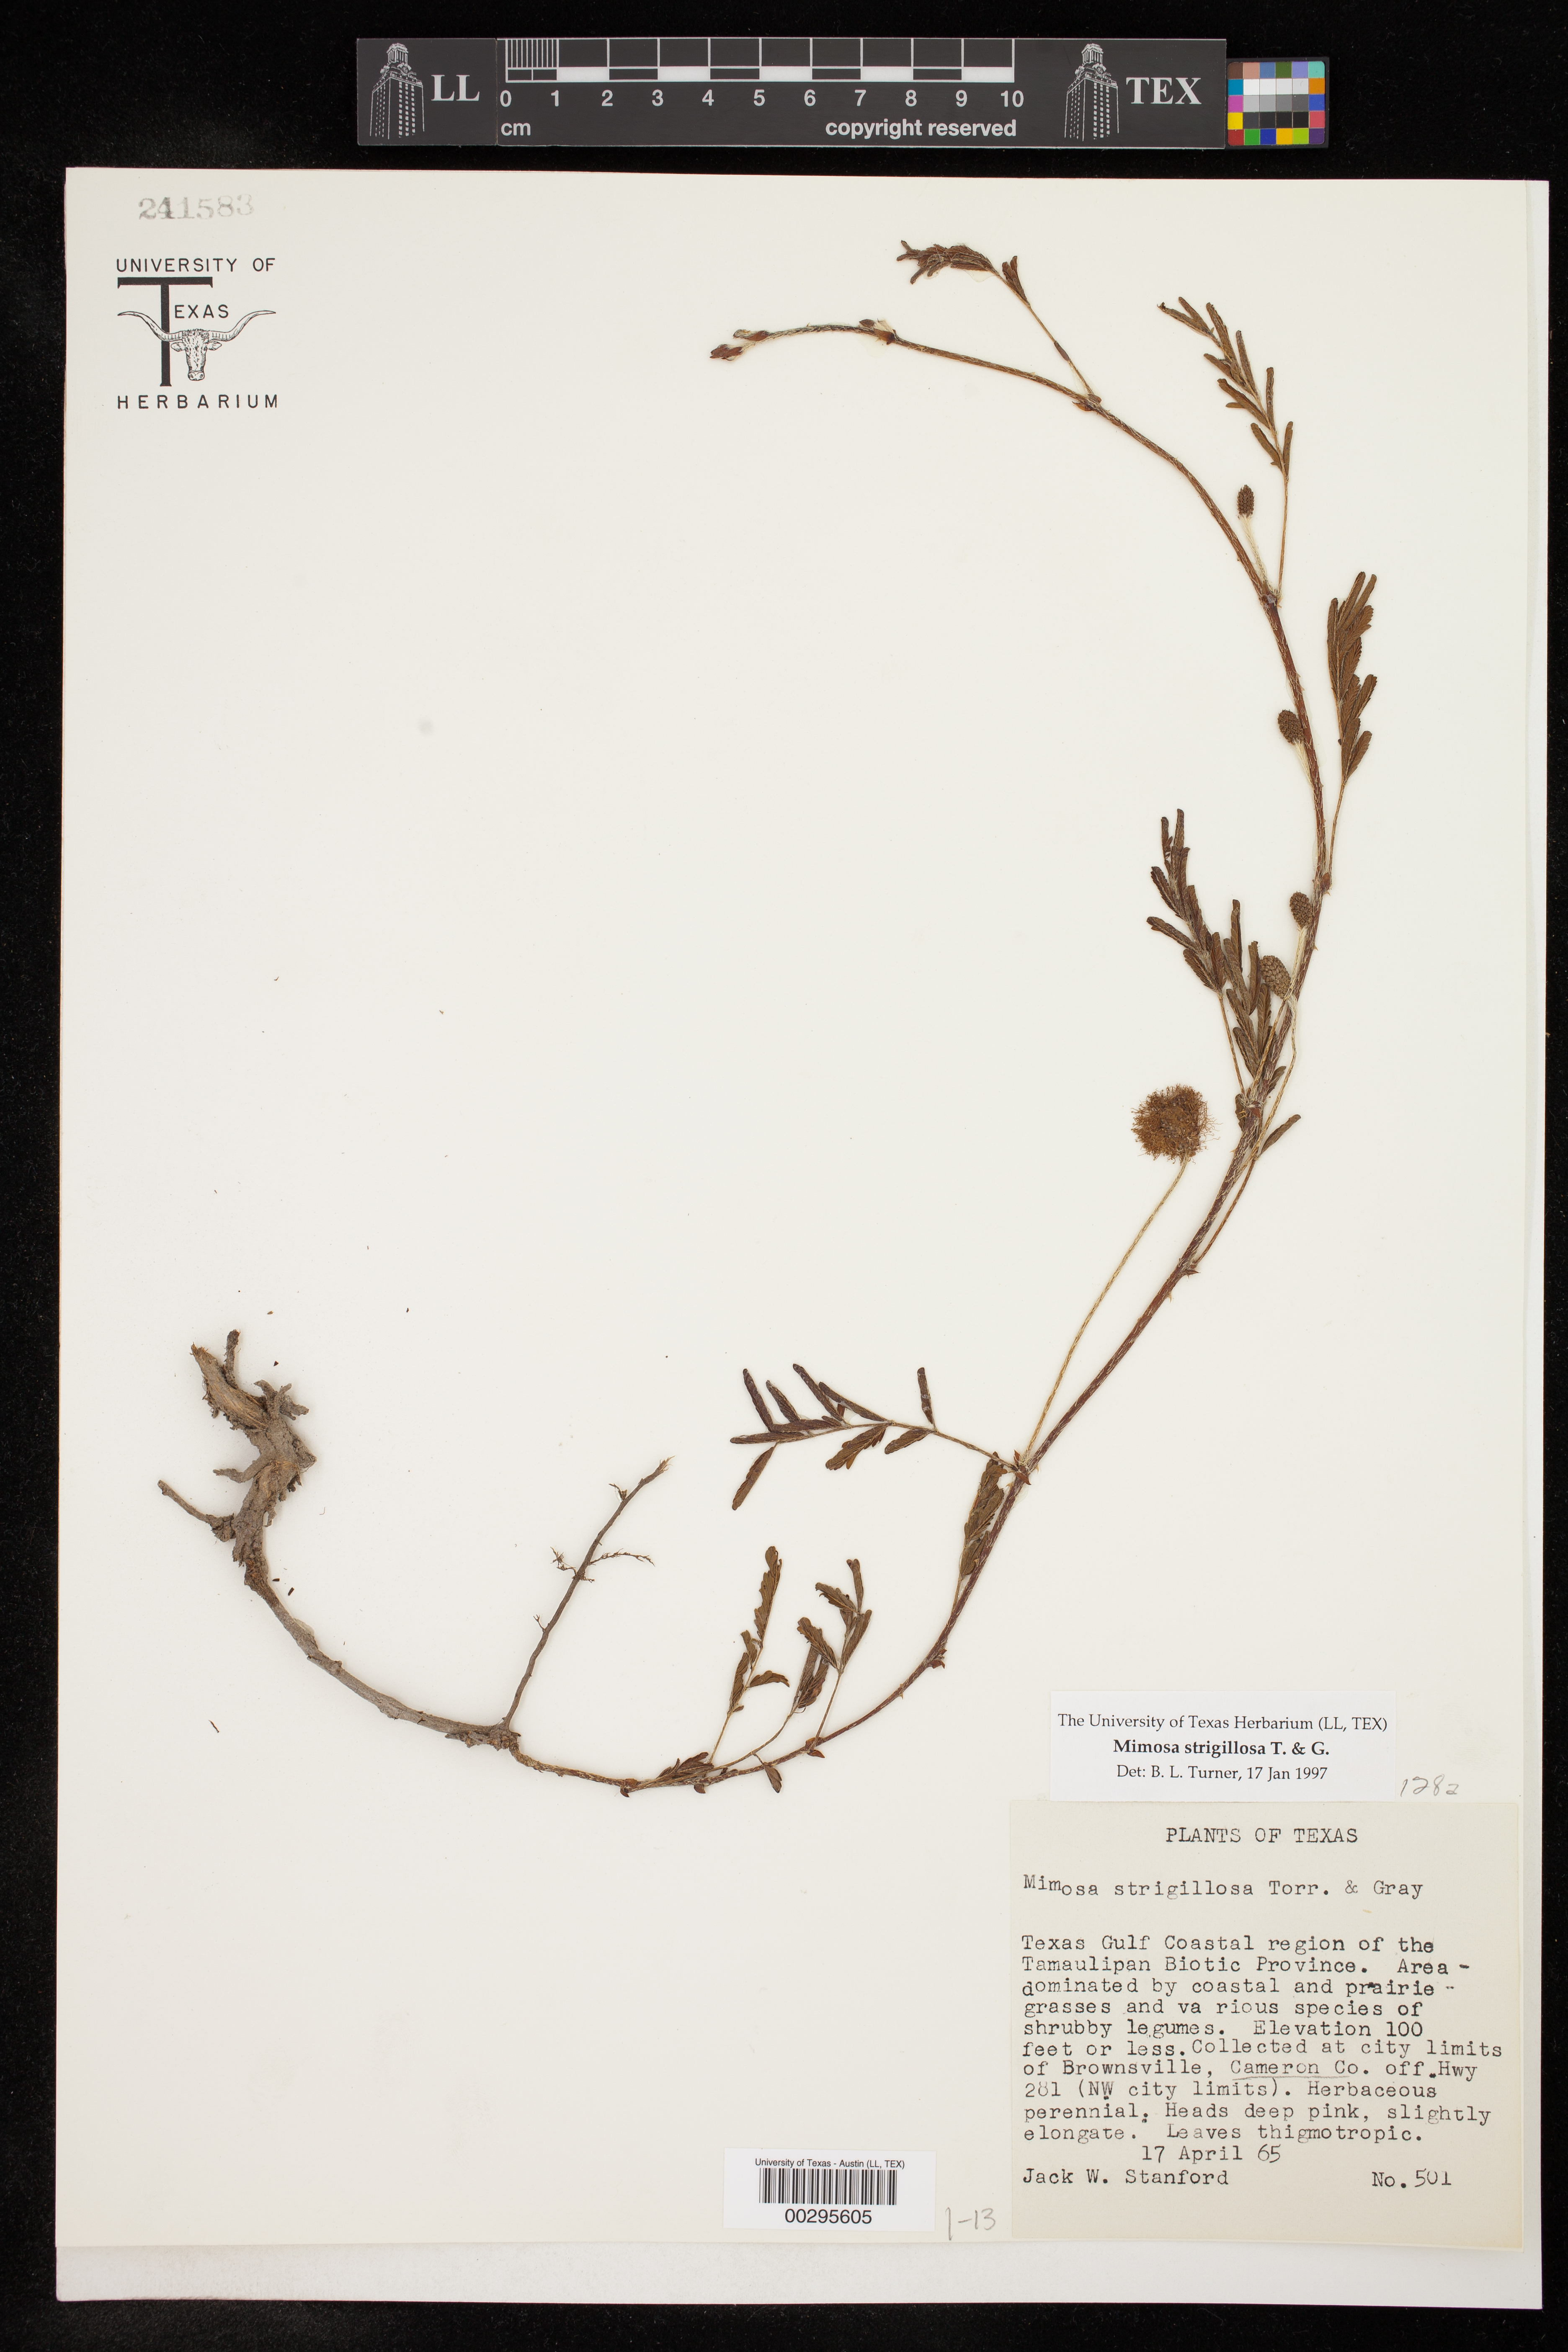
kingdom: Plantae
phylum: Tracheophyta
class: Magnoliopsida
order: Fabales
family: Fabaceae
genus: Mimosa
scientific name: Mimosa strigillosa
